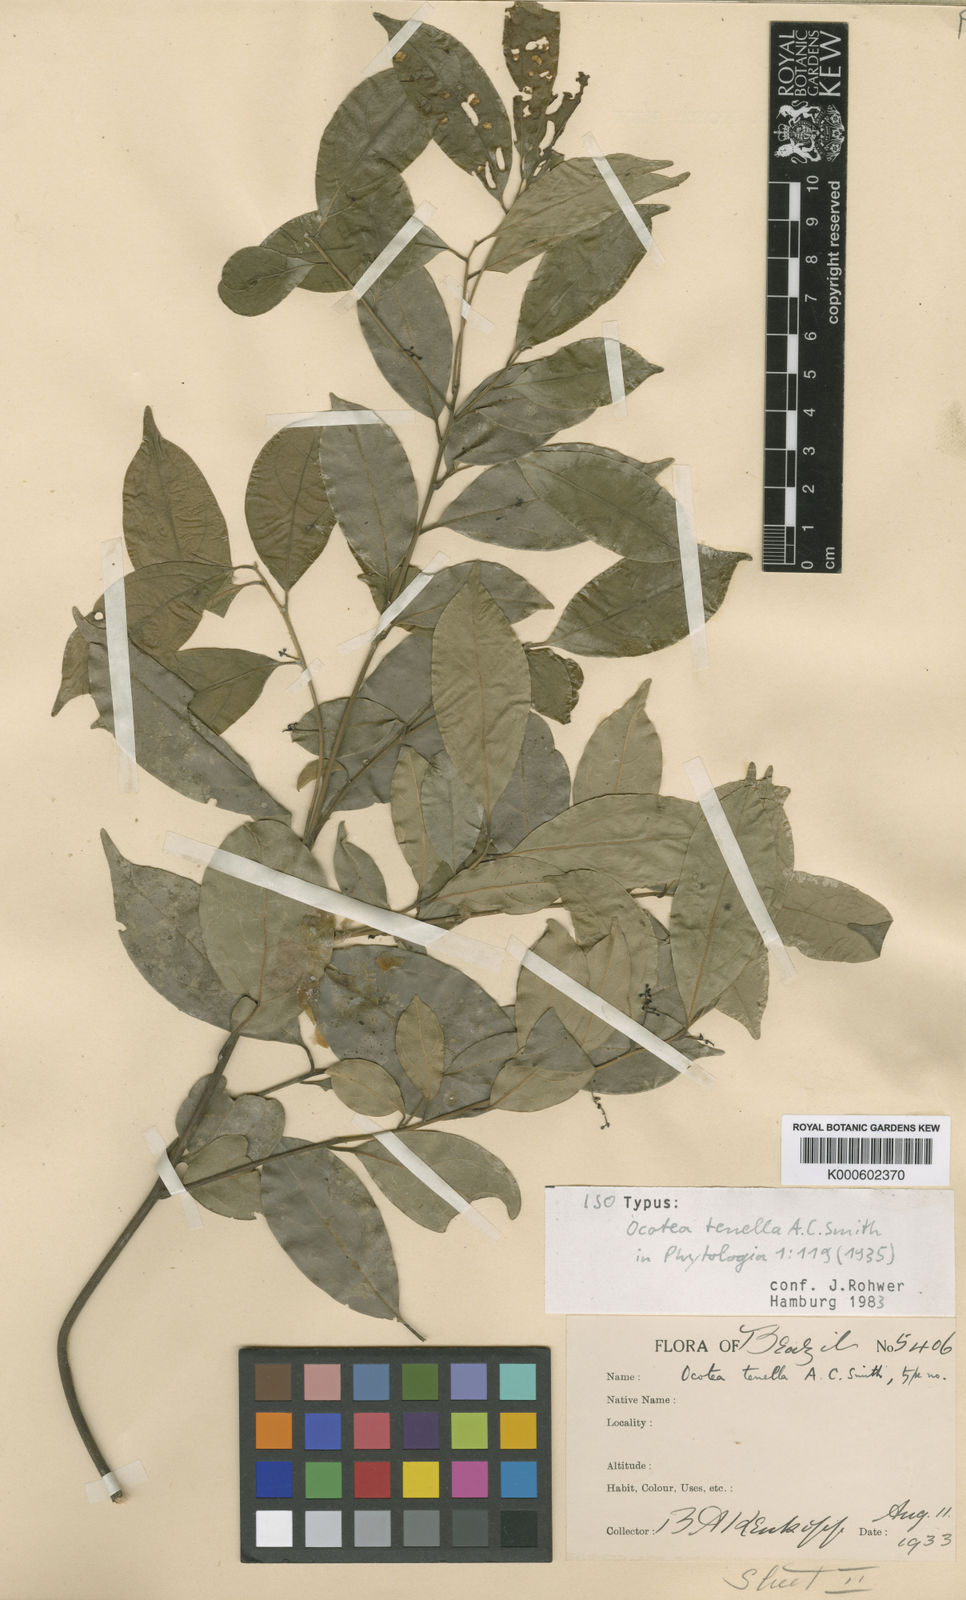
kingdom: Plantae
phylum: Tracheophyta
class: Magnoliopsida
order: Laurales
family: Lauraceae
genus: Ocotea
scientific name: Ocotea tenella
